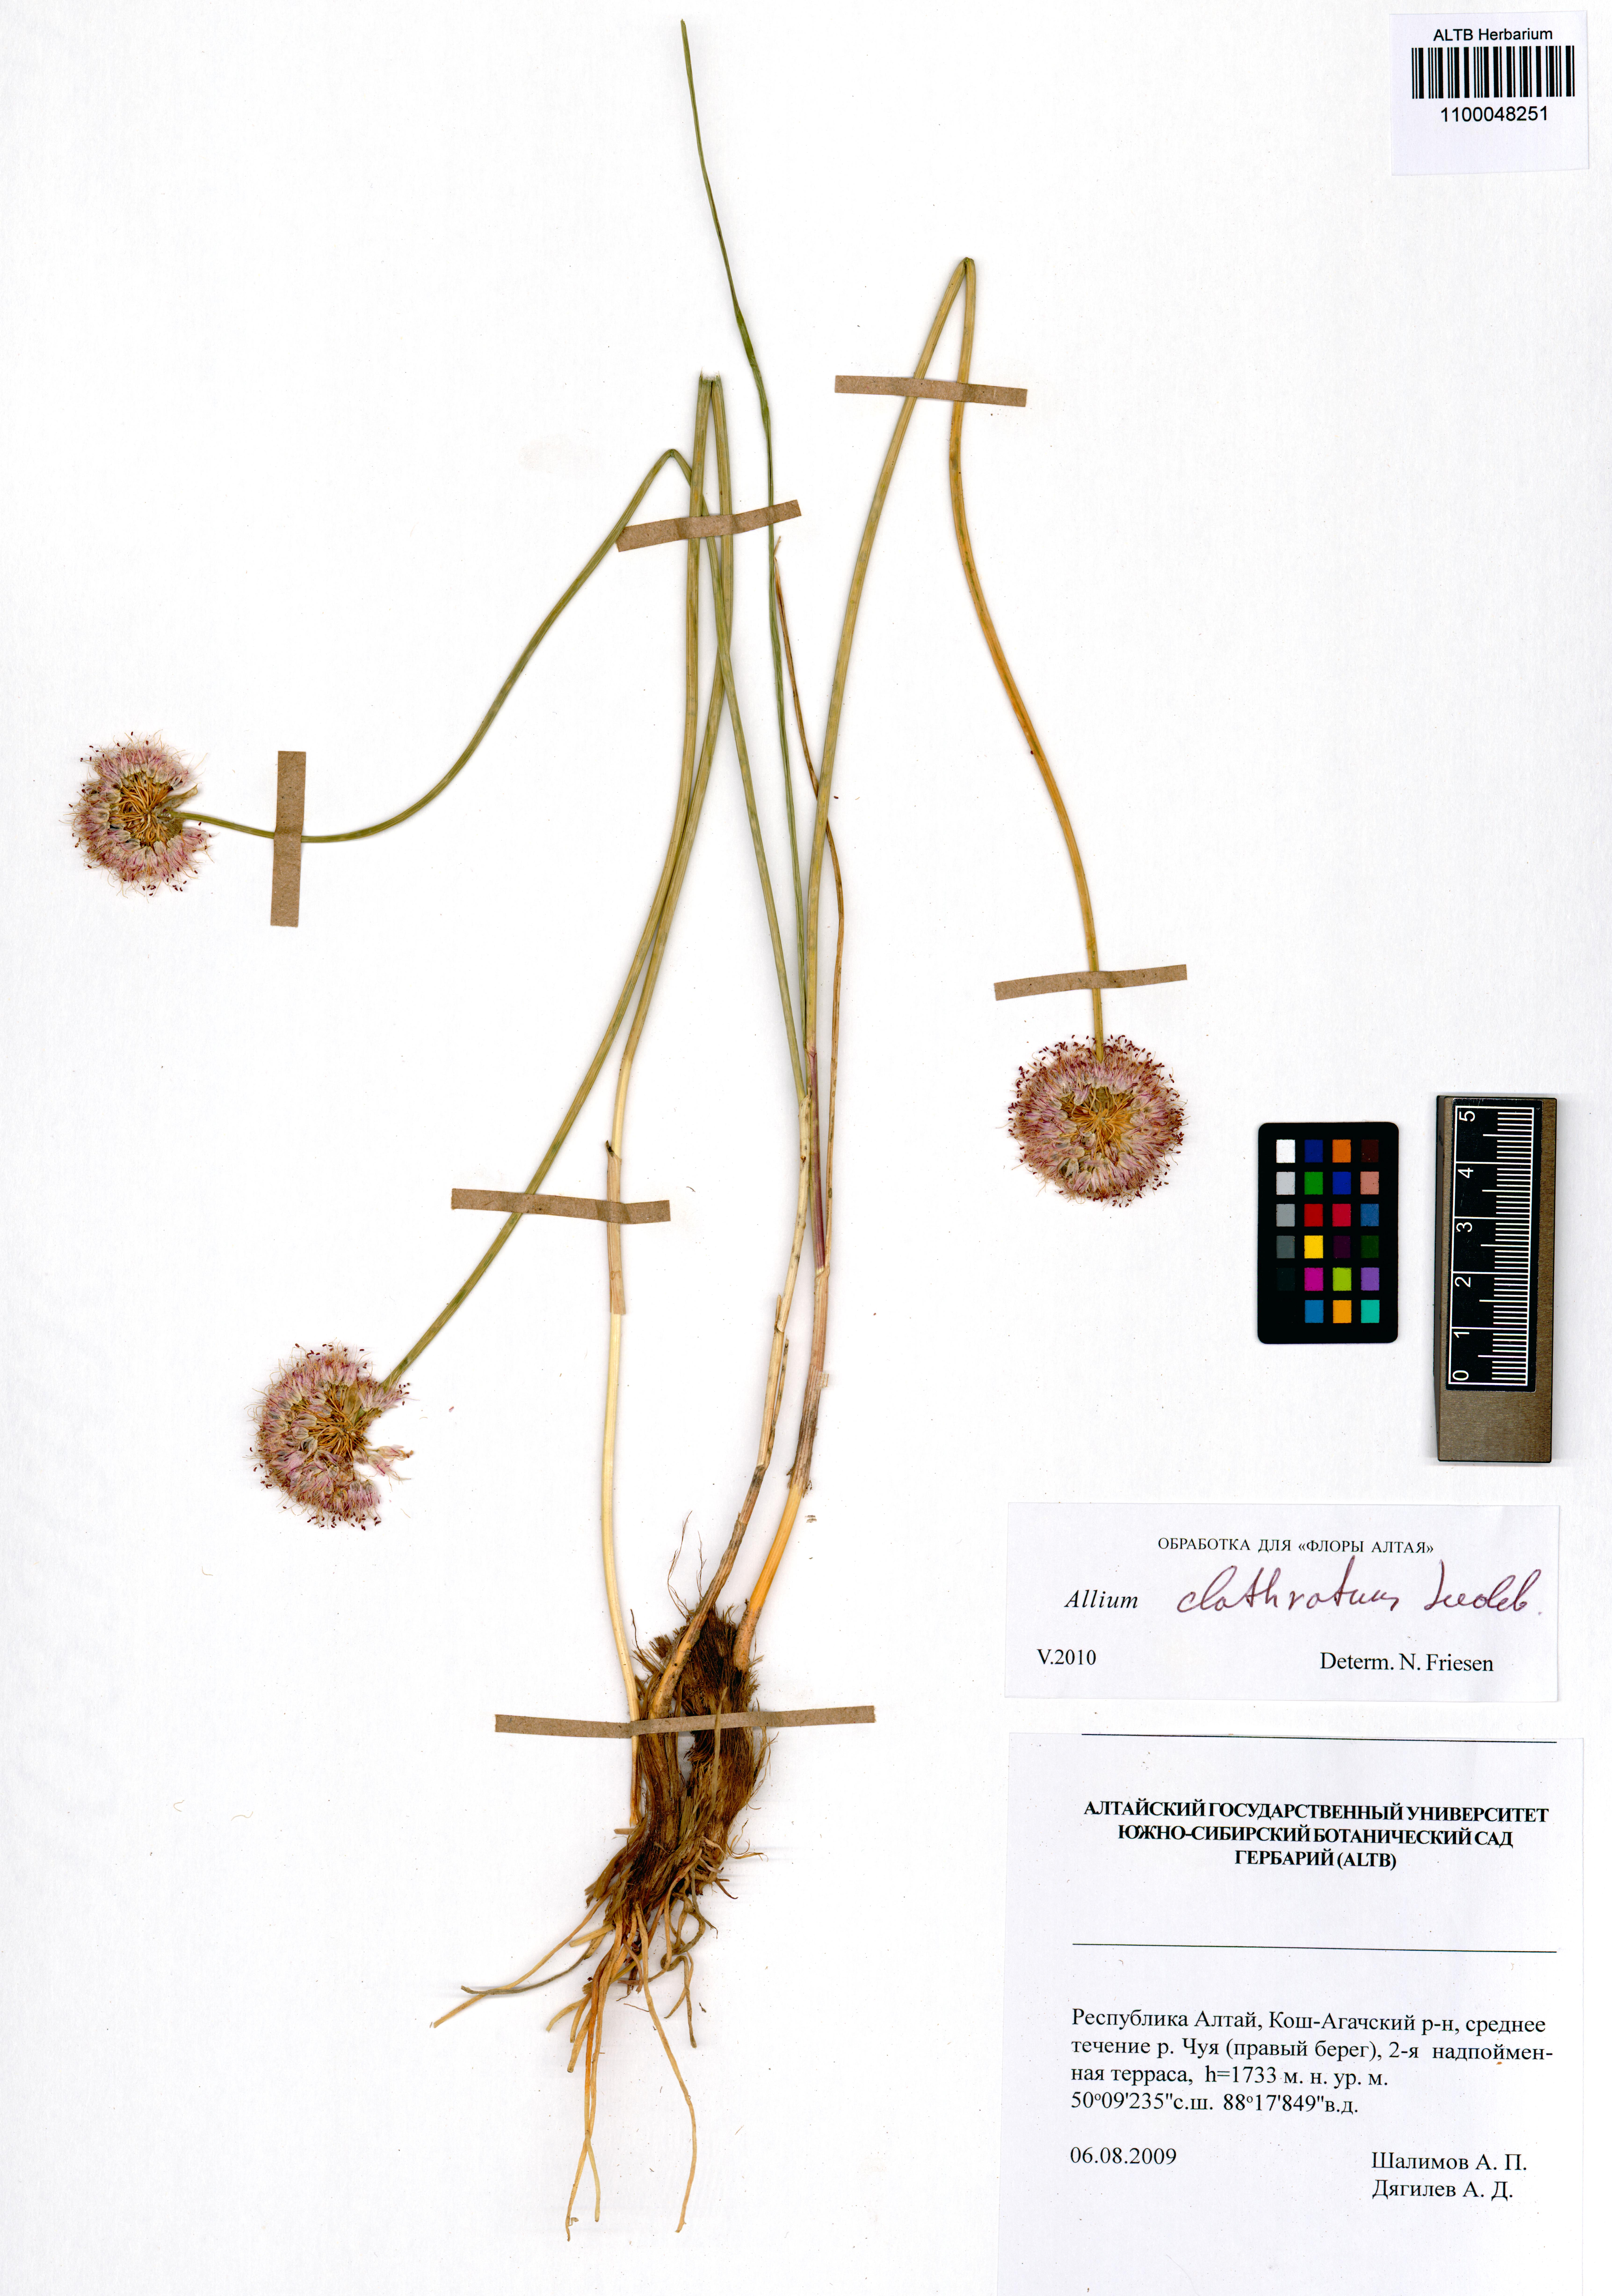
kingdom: Plantae
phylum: Tracheophyta
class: Liliopsida
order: Asparagales
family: Amaryllidaceae
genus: Allium
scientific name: Allium clathratum
